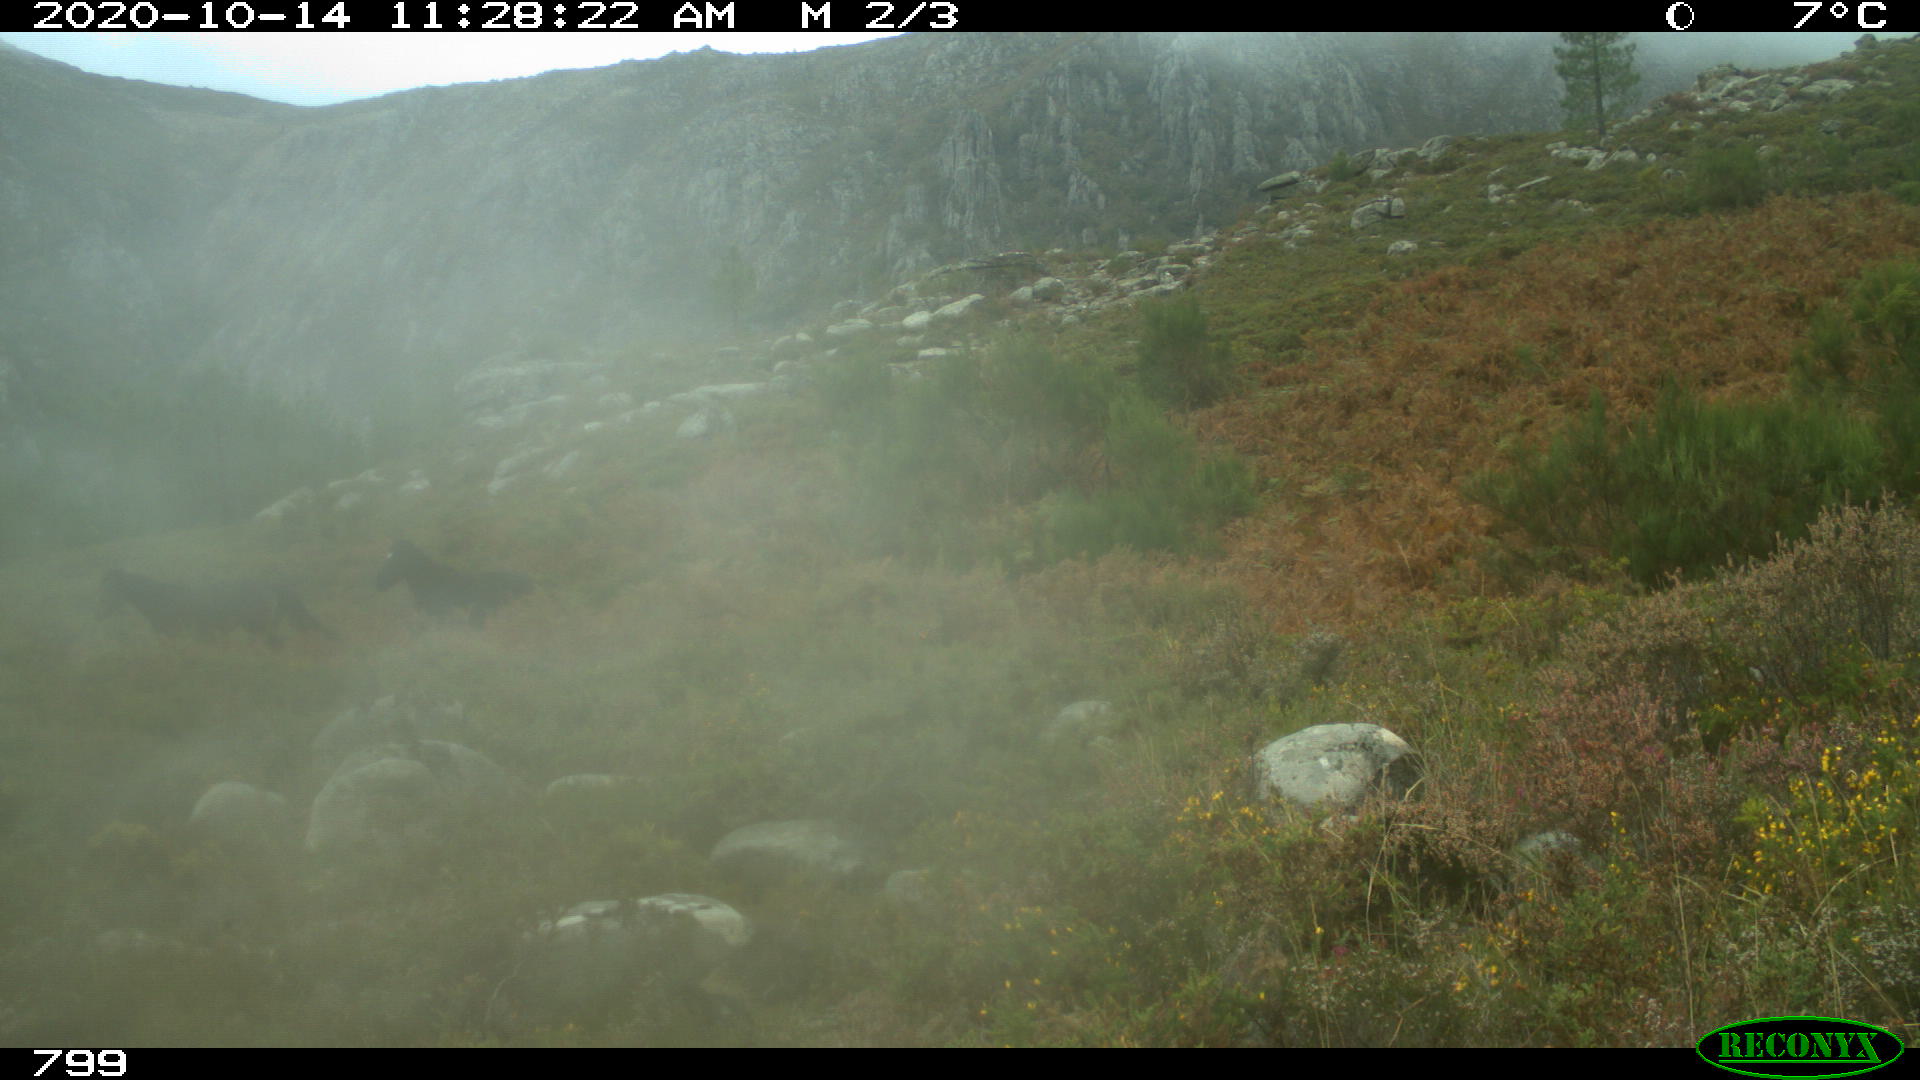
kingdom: Animalia
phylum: Chordata
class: Mammalia
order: Perissodactyla
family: Equidae
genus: Equus
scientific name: Equus caballus
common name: Horse
